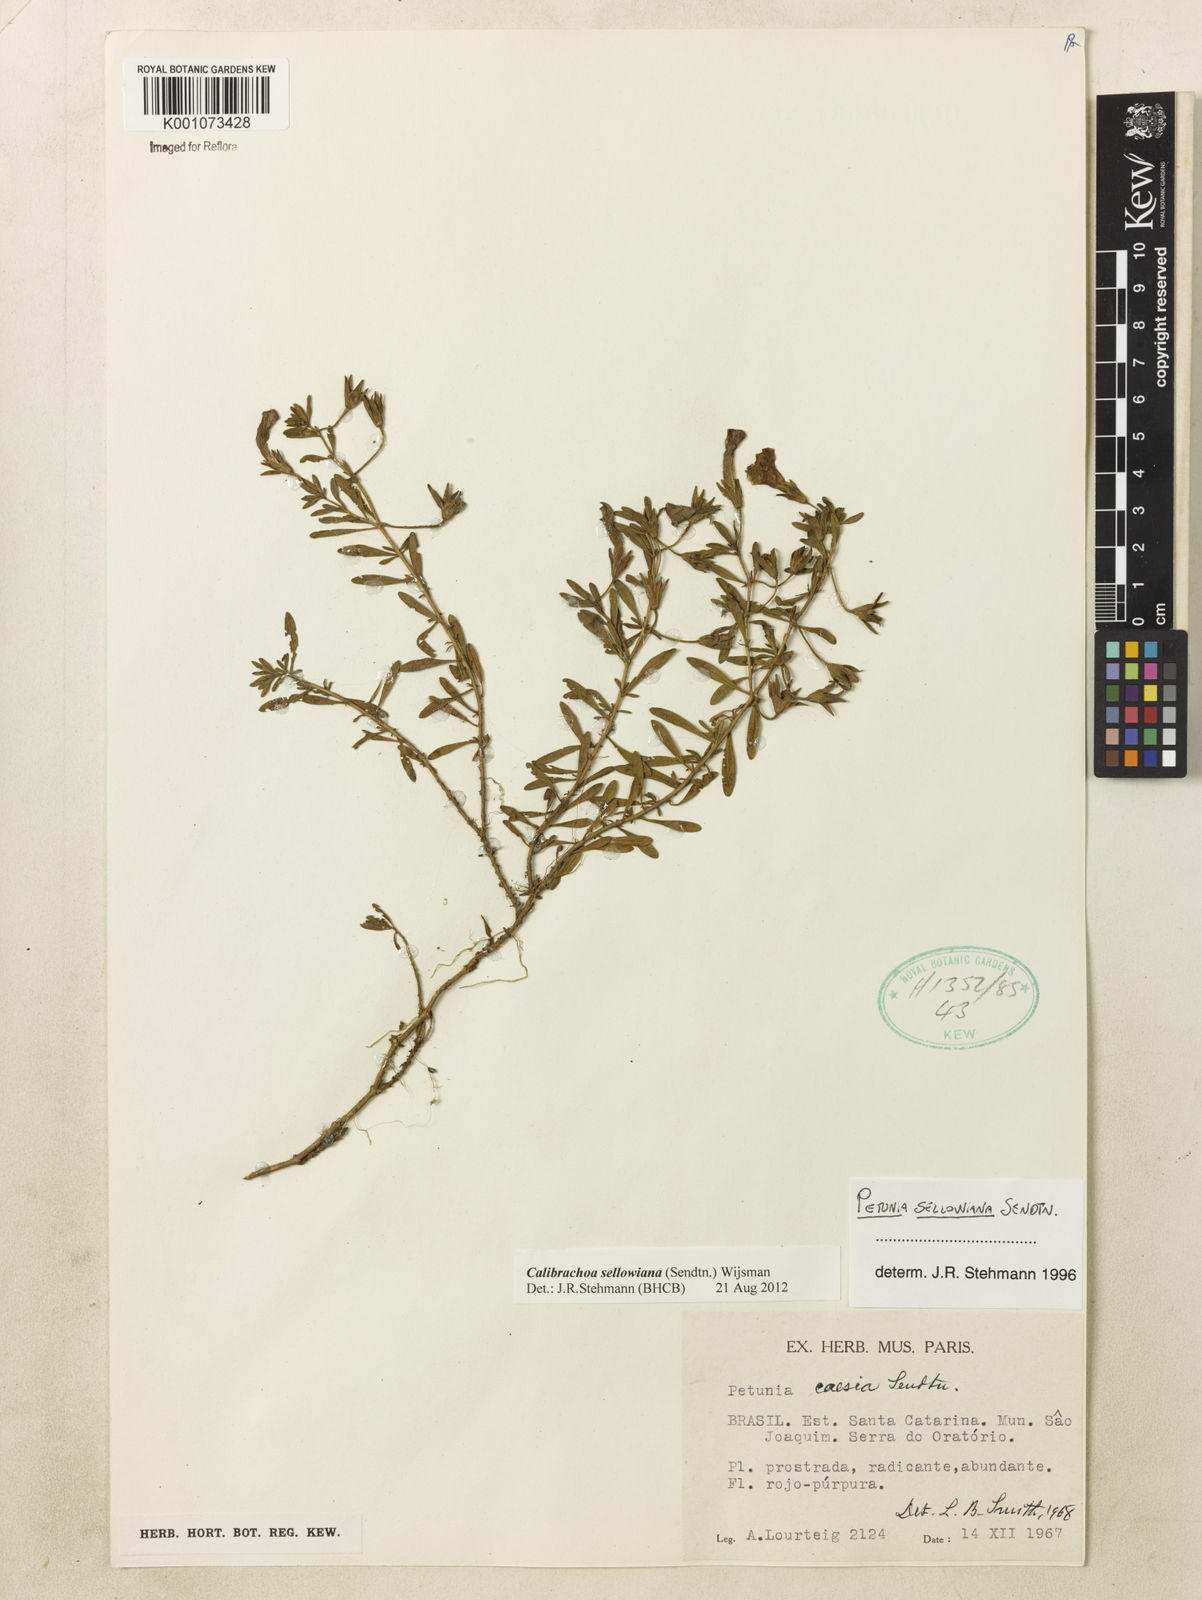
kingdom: Plantae
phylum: Tracheophyta
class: Magnoliopsida
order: Solanales
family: Solanaceae
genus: Calibrachoa
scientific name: Calibrachoa sellowiana
